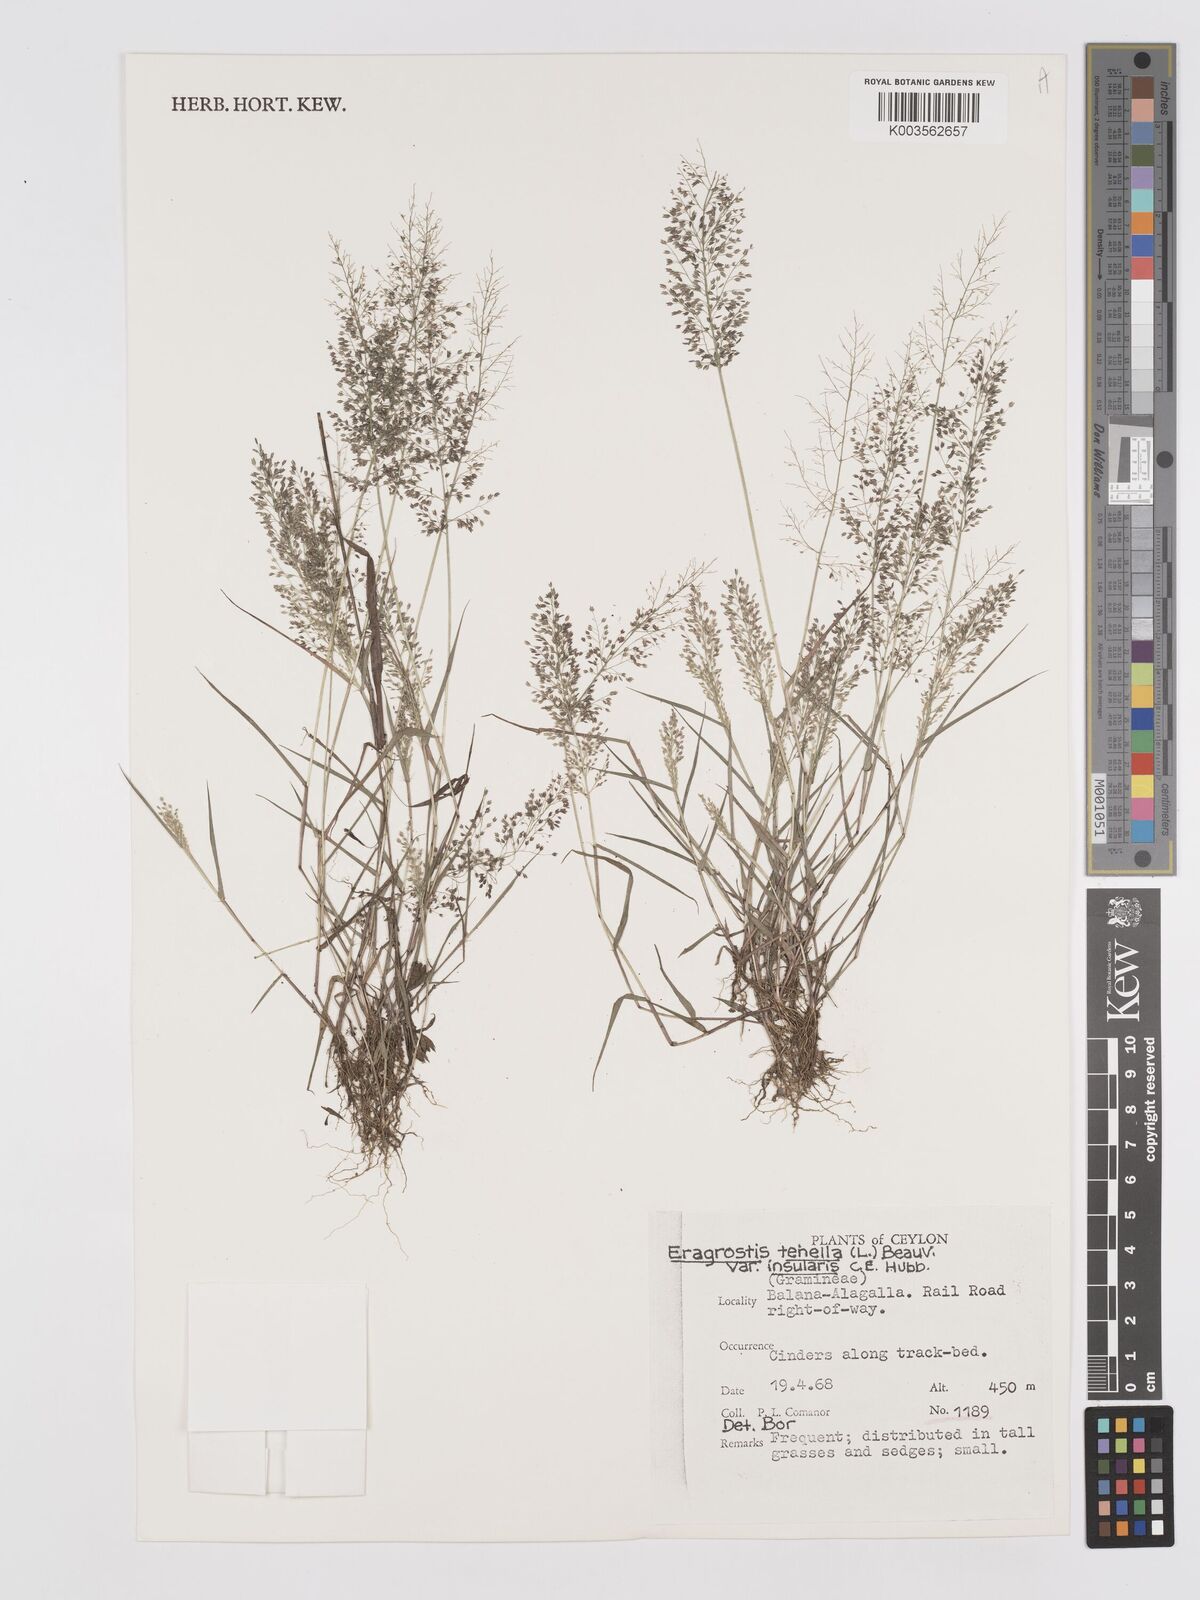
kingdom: Plantae
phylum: Tracheophyta
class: Liliopsida
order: Poales
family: Poaceae
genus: Eragrostis
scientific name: Eragrostis tenella
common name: Japanese lovegrass
